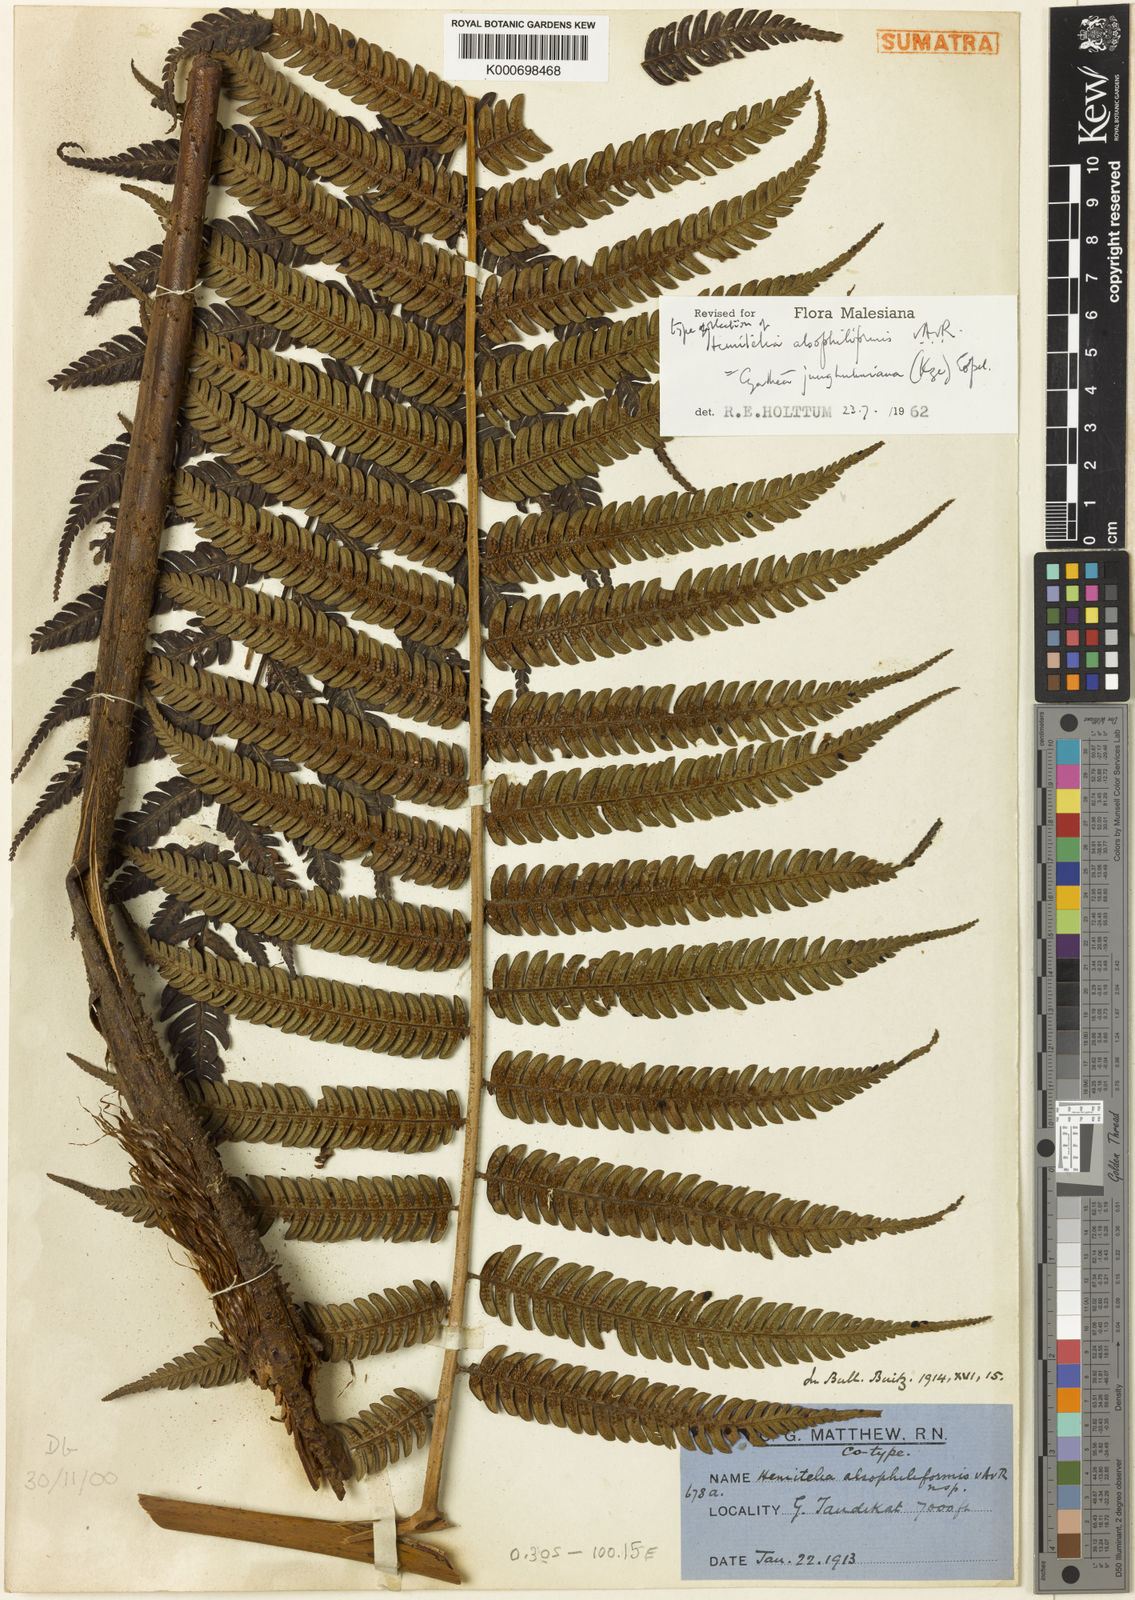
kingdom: Plantae
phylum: Tracheophyta
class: Polypodiopsida
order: Cyatheales
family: Cyatheaceae
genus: Alsophila
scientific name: Alsophila junghuhniana
